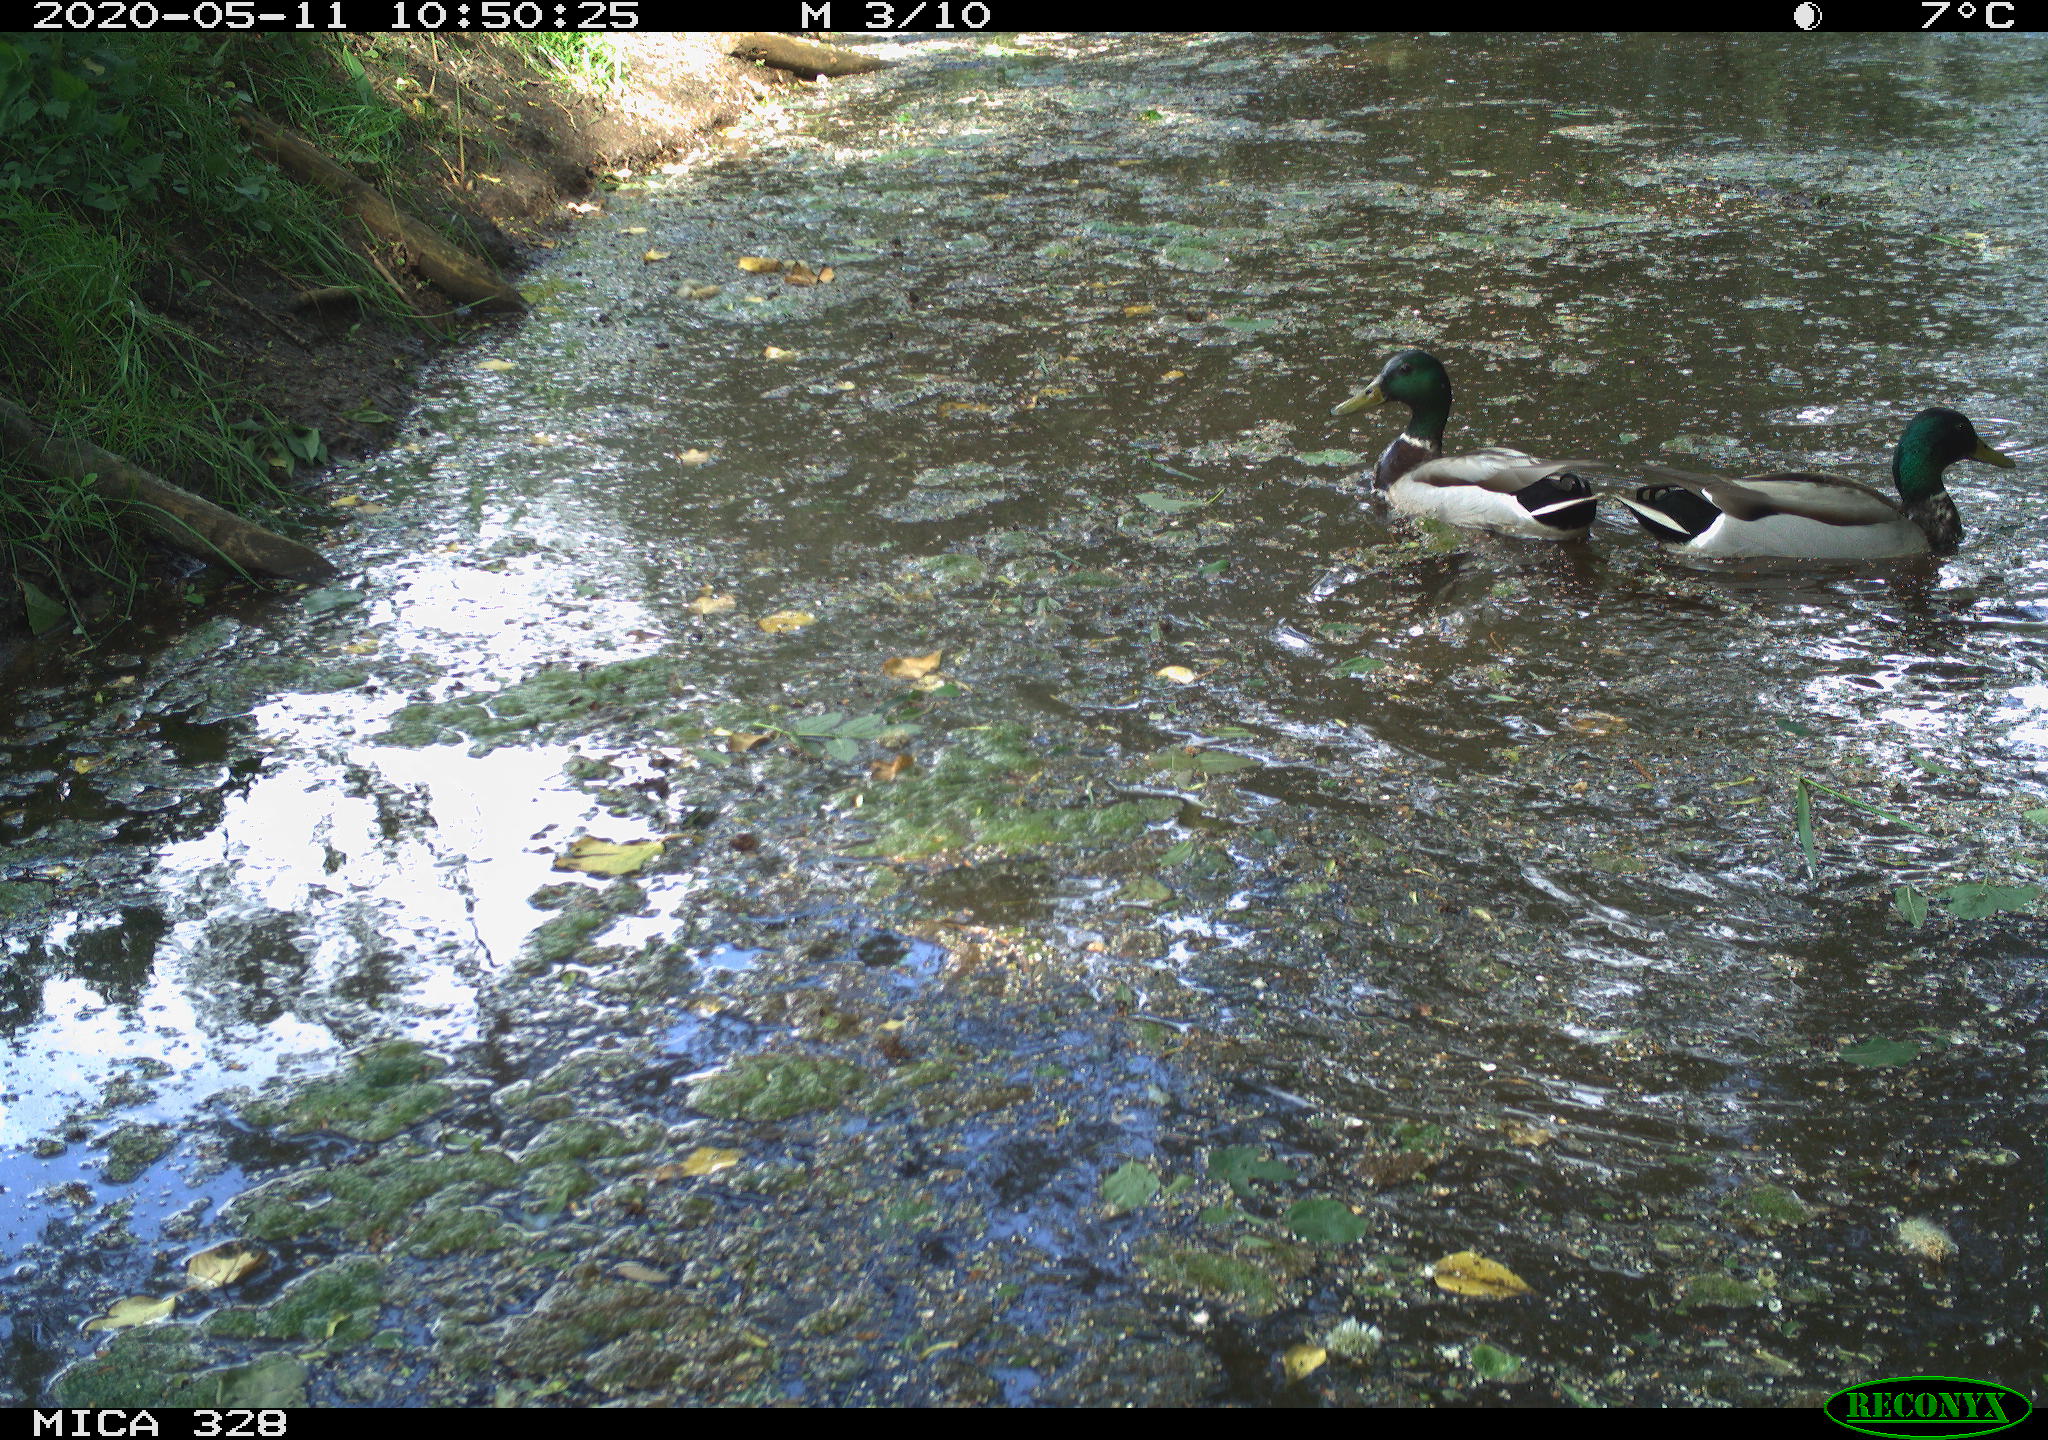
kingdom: Animalia
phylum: Chordata
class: Aves
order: Anseriformes
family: Anatidae
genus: Anas
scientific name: Anas platyrhynchos
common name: Mallard
